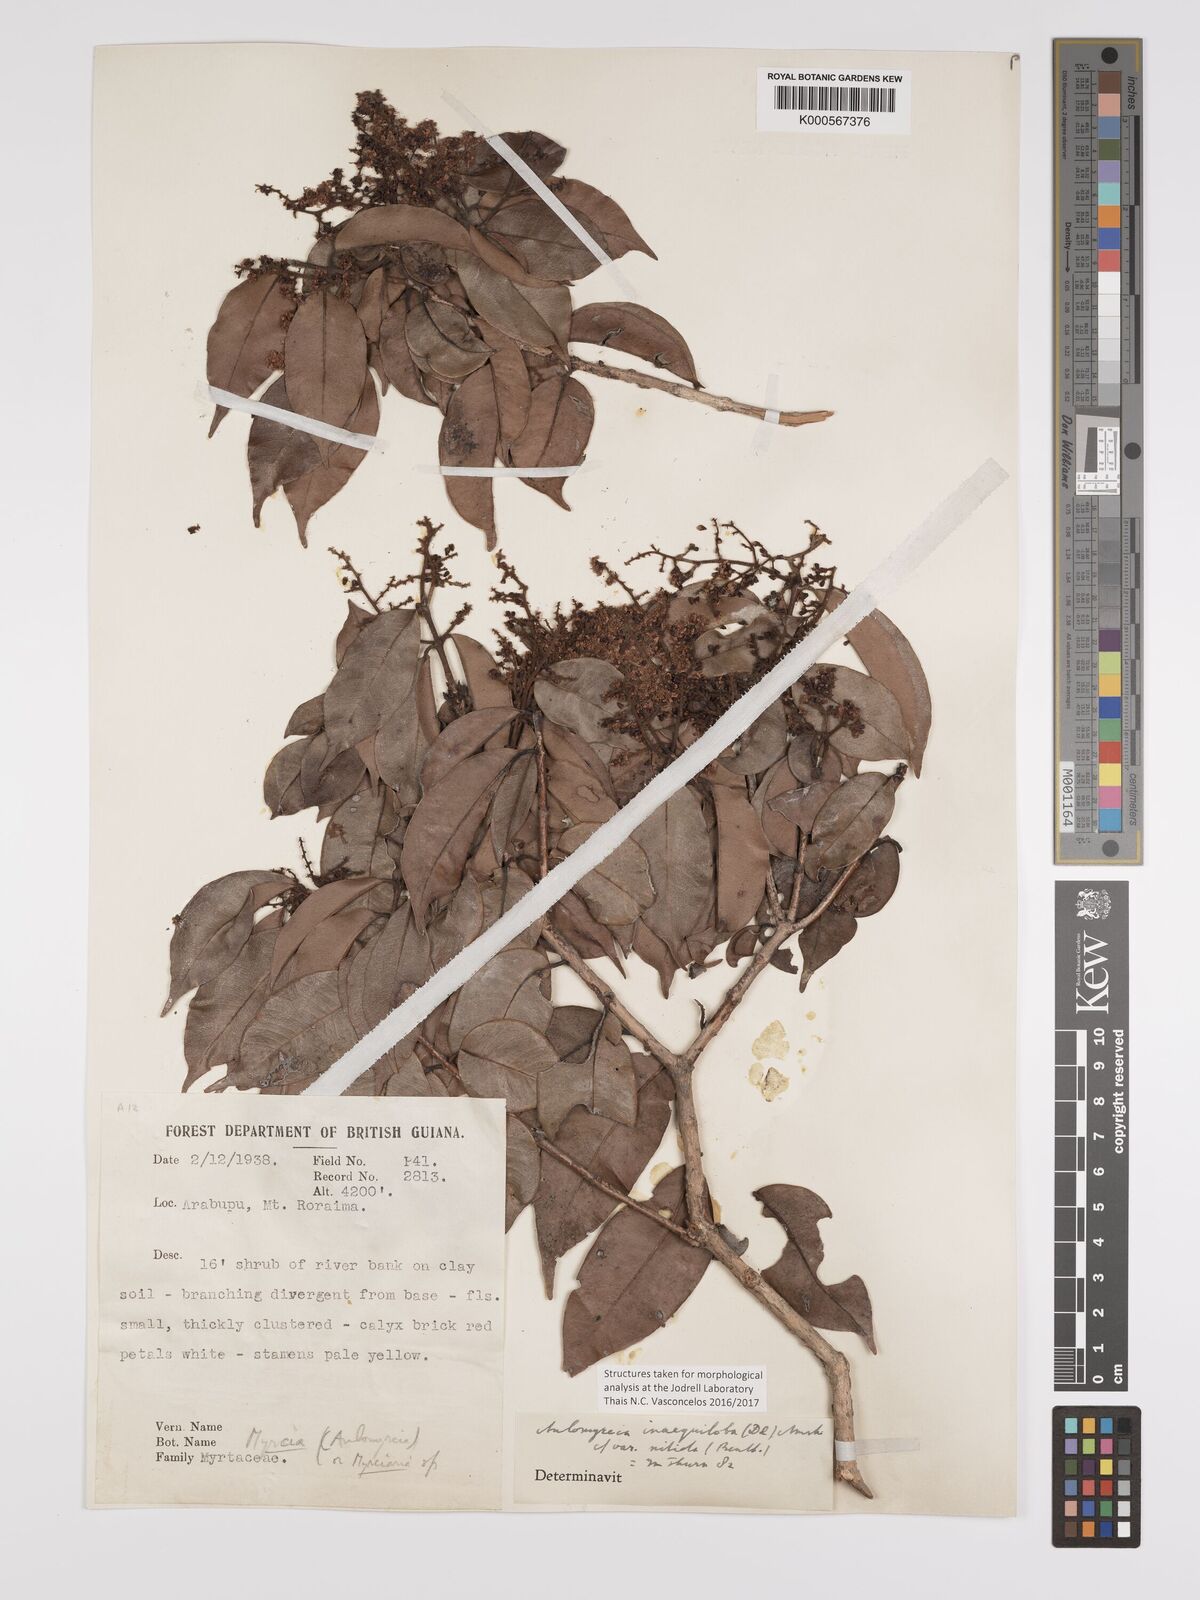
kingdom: Plantae
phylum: Tracheophyta
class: Magnoliopsida
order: Myrtales
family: Myrtaceae
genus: Myrcia
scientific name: Myrcia inaequiloba
